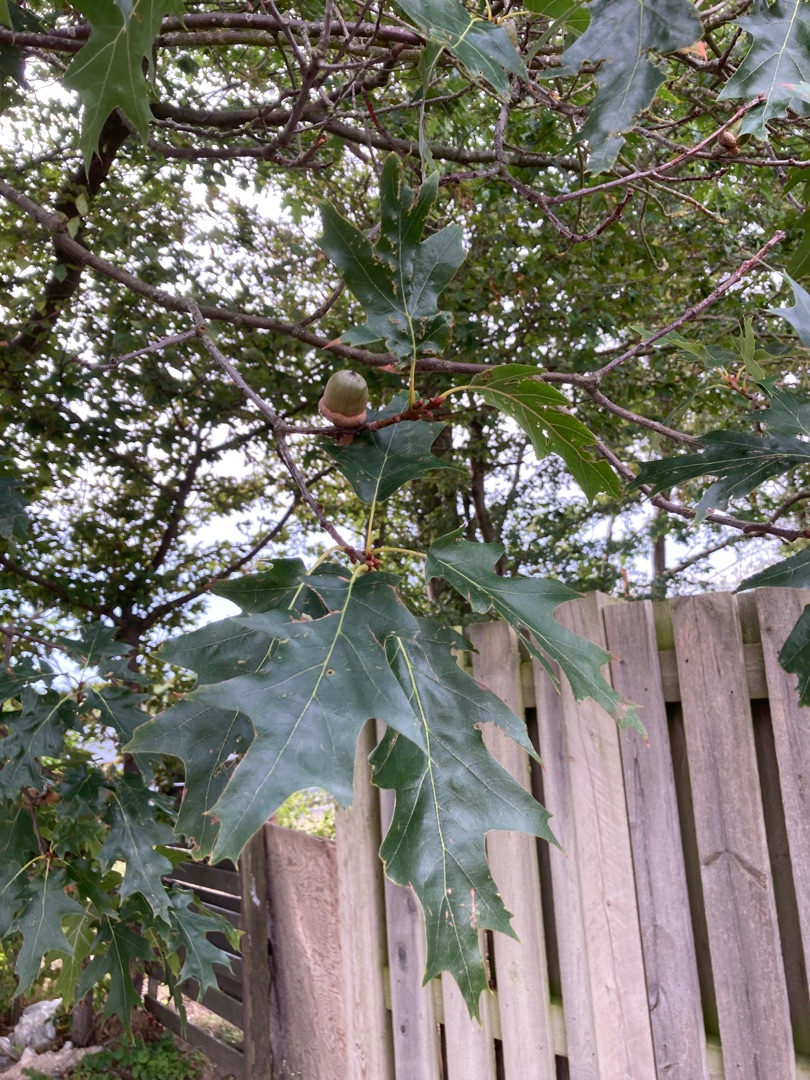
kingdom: Plantae
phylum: Tracheophyta
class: Magnoliopsida
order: Fagales
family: Fagaceae
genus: Quercus
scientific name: Quercus rubra
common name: Rød-eg
